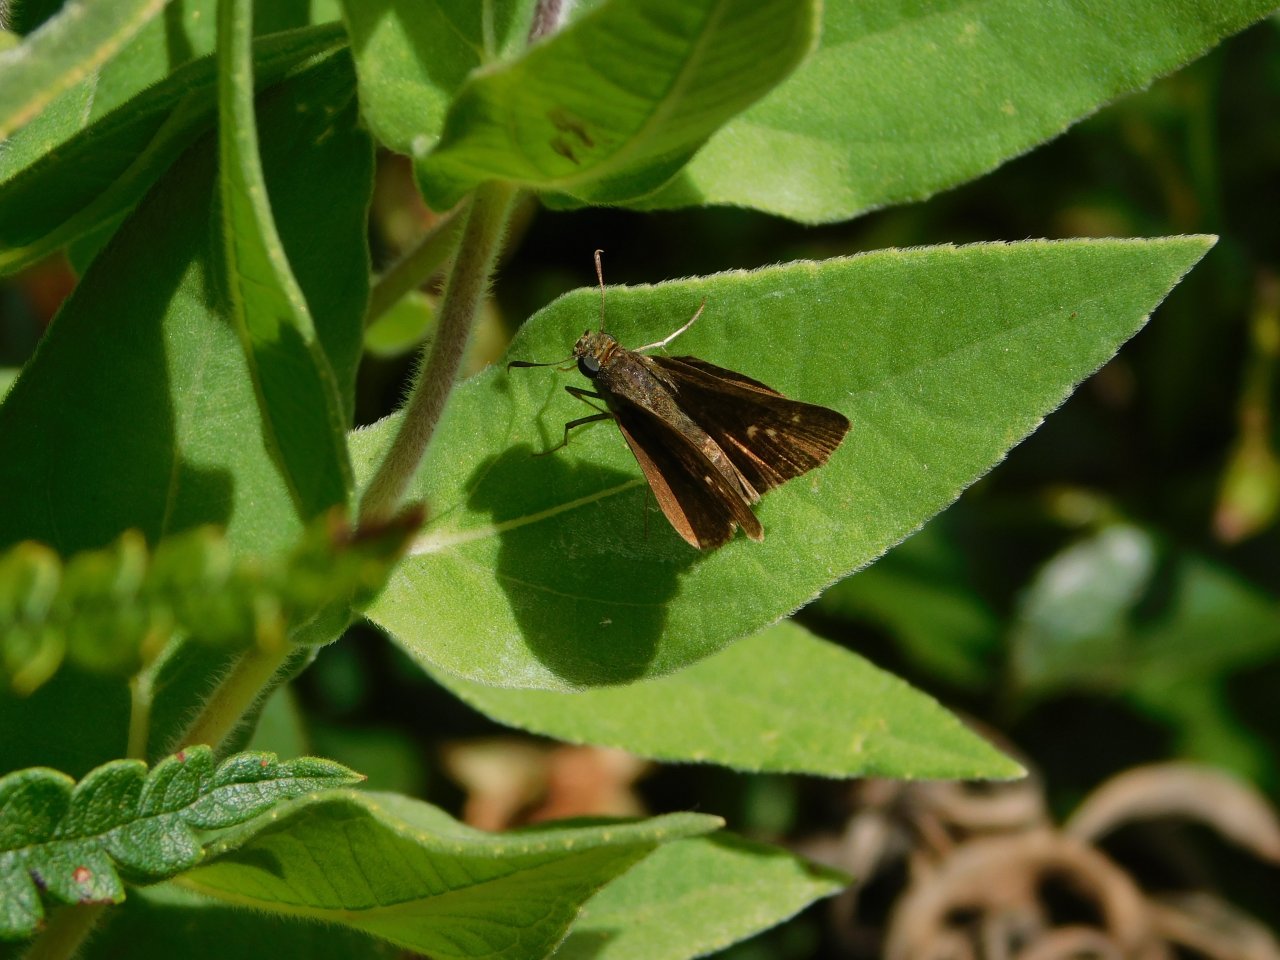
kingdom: Animalia
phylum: Arthropoda
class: Insecta
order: Lepidoptera
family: Hesperiidae
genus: Vernia
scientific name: Vernia verna
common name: Little Glassywing
